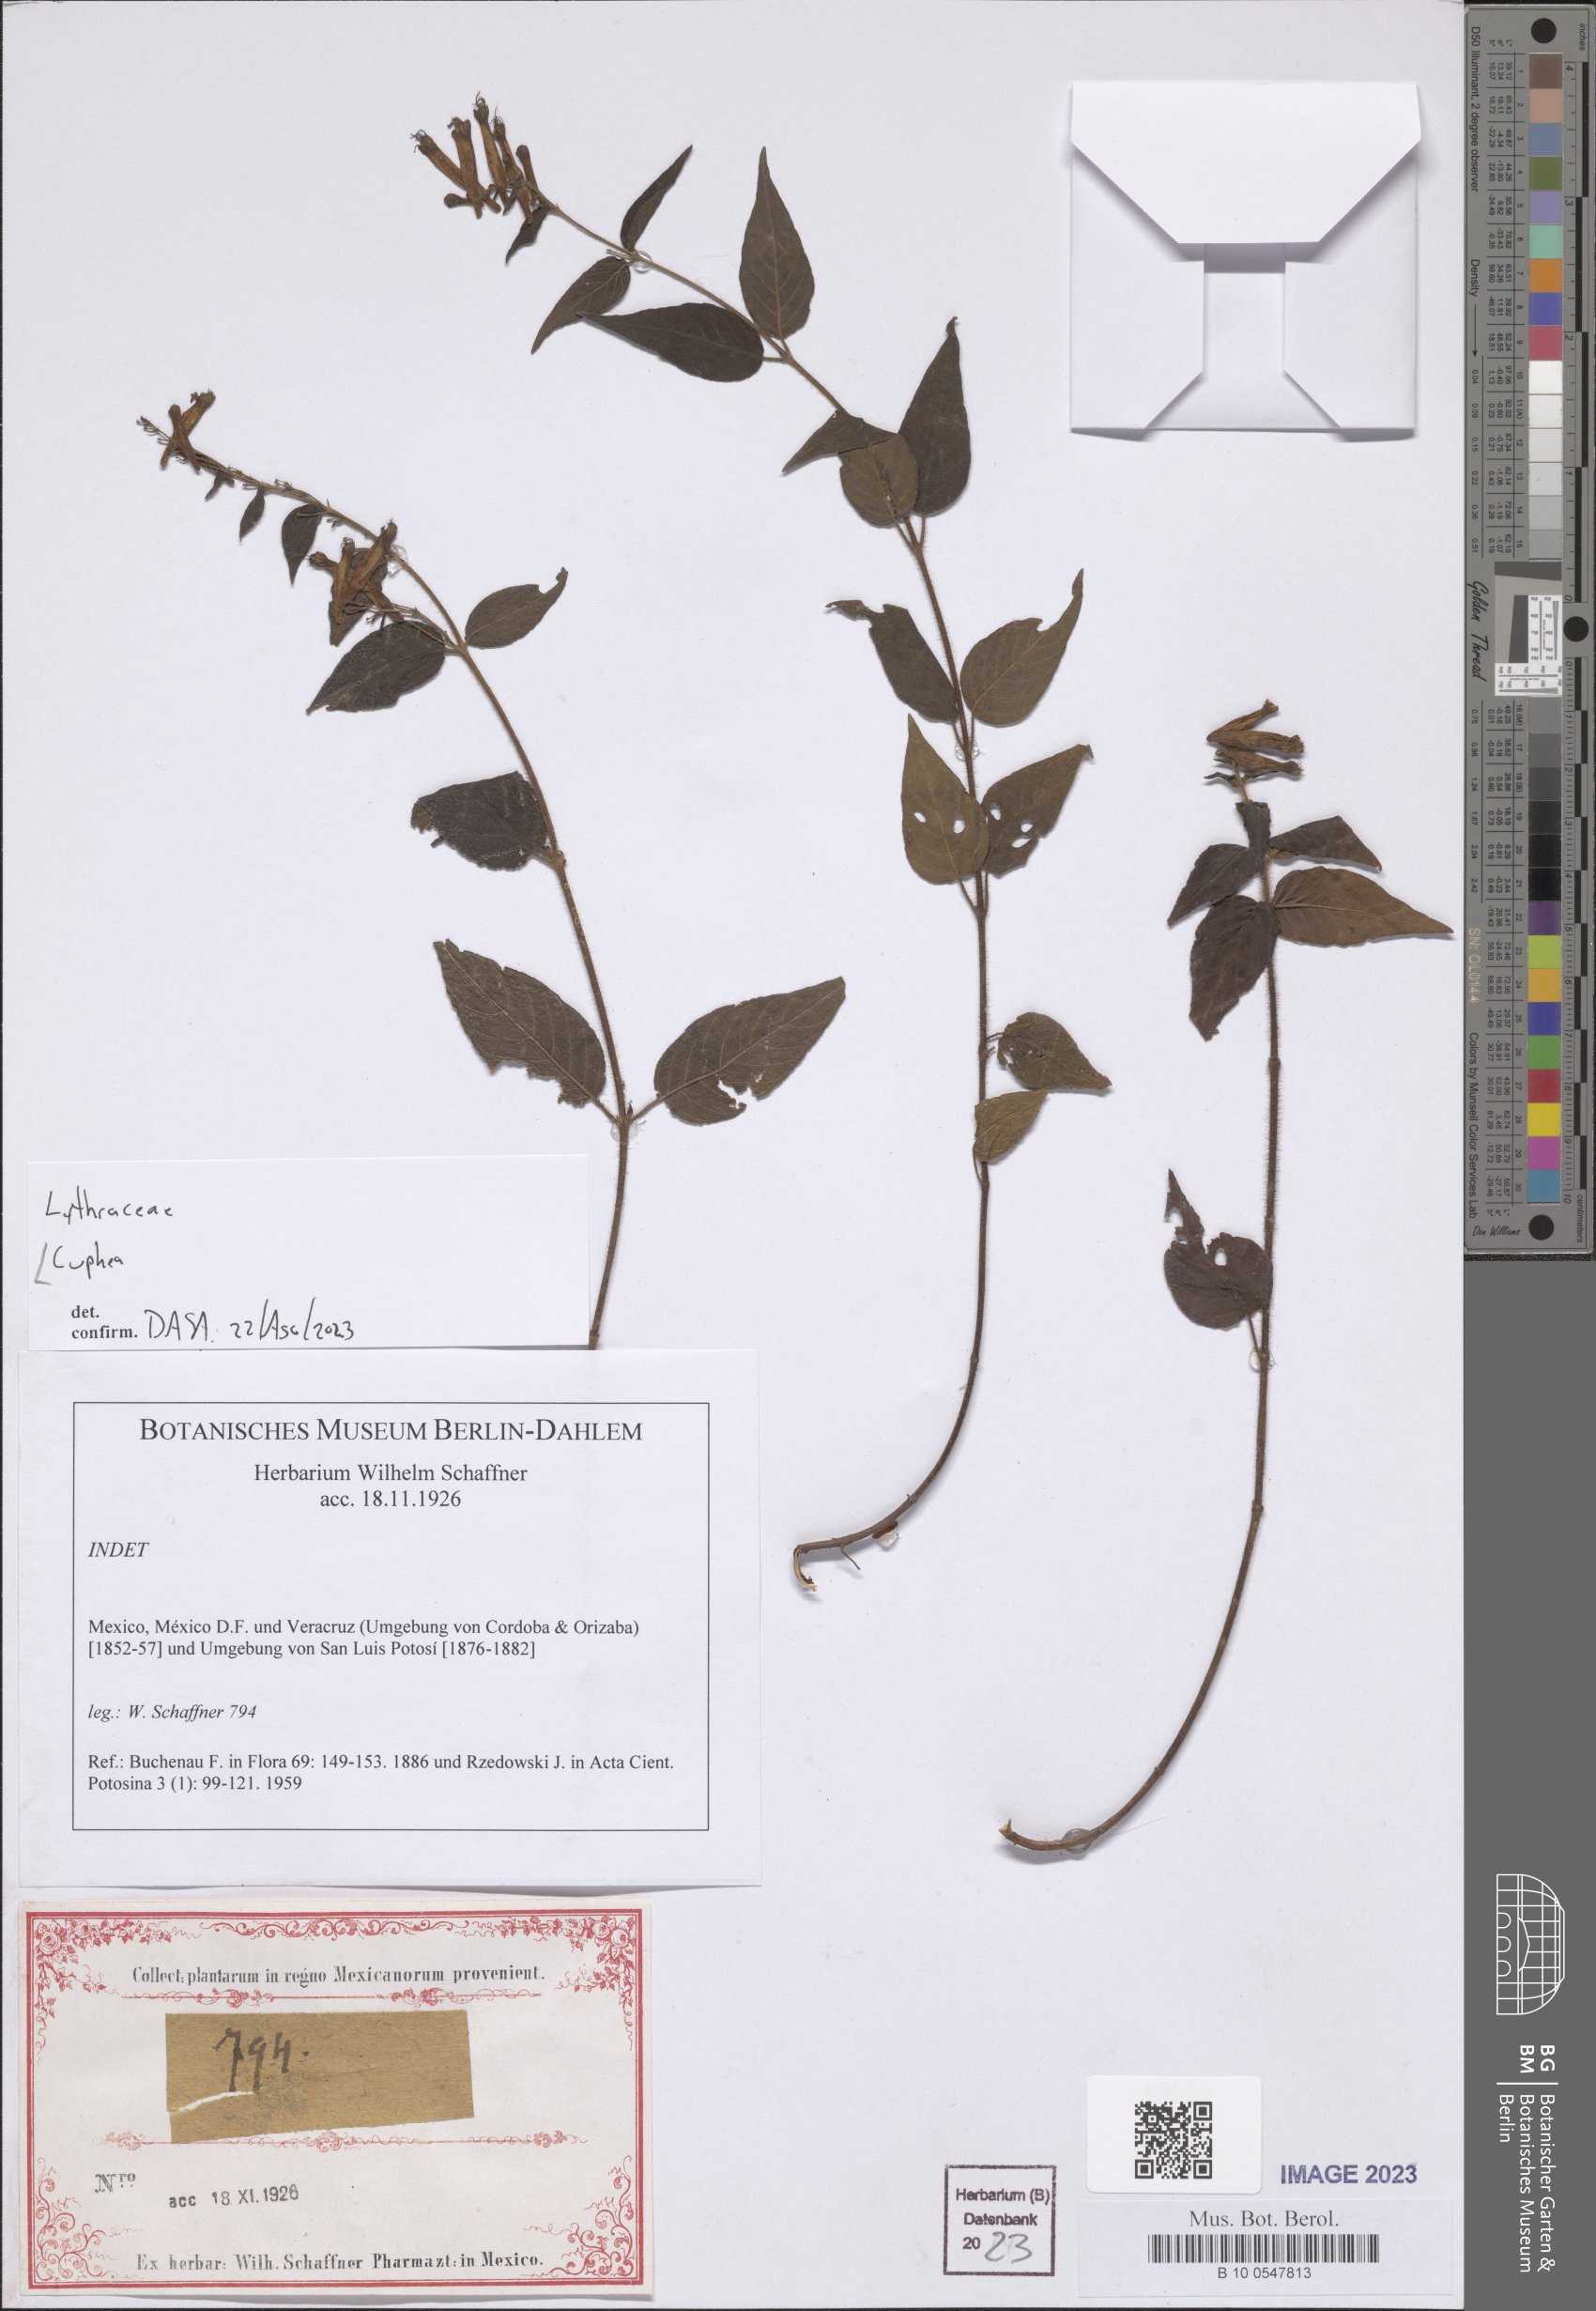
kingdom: Plantae
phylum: Tracheophyta
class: Magnoliopsida
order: Myrtales
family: Lythraceae
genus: Cuphea
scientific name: Cuphea
